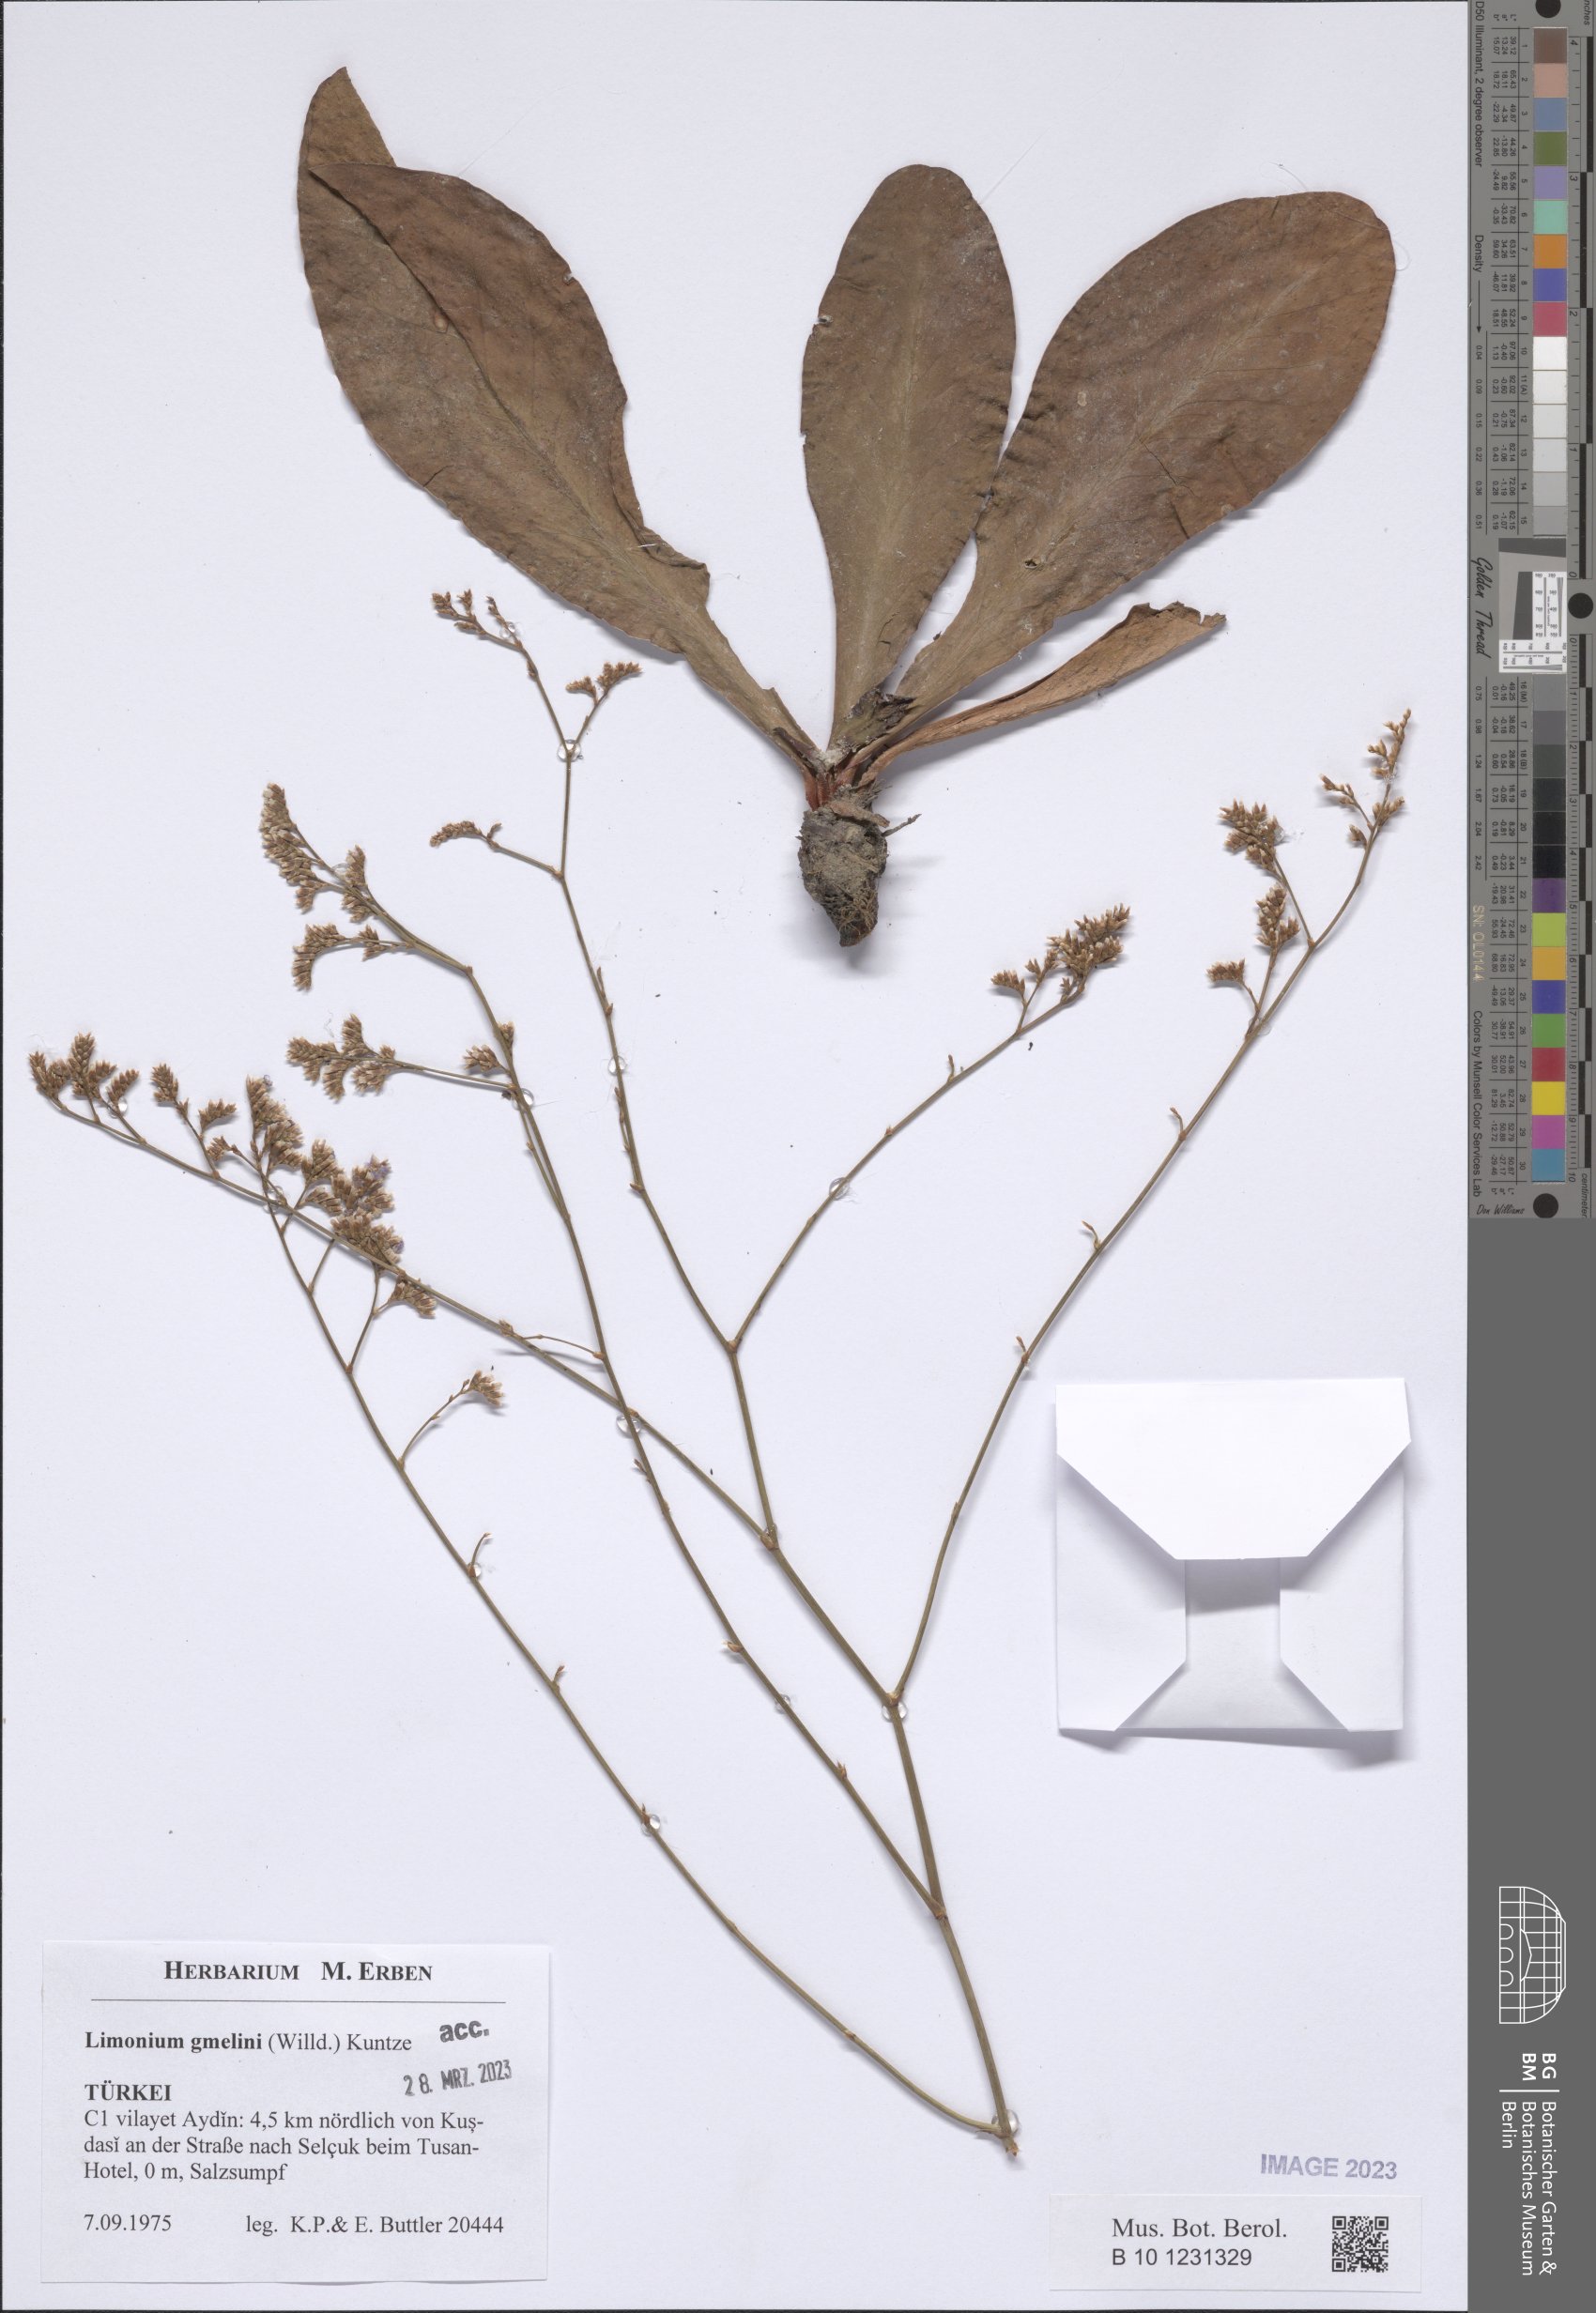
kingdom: Plantae
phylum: Tracheophyta
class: Magnoliopsida
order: Caryophyllales
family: Plumbaginaceae
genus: Limonium
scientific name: Limonium gmelini
